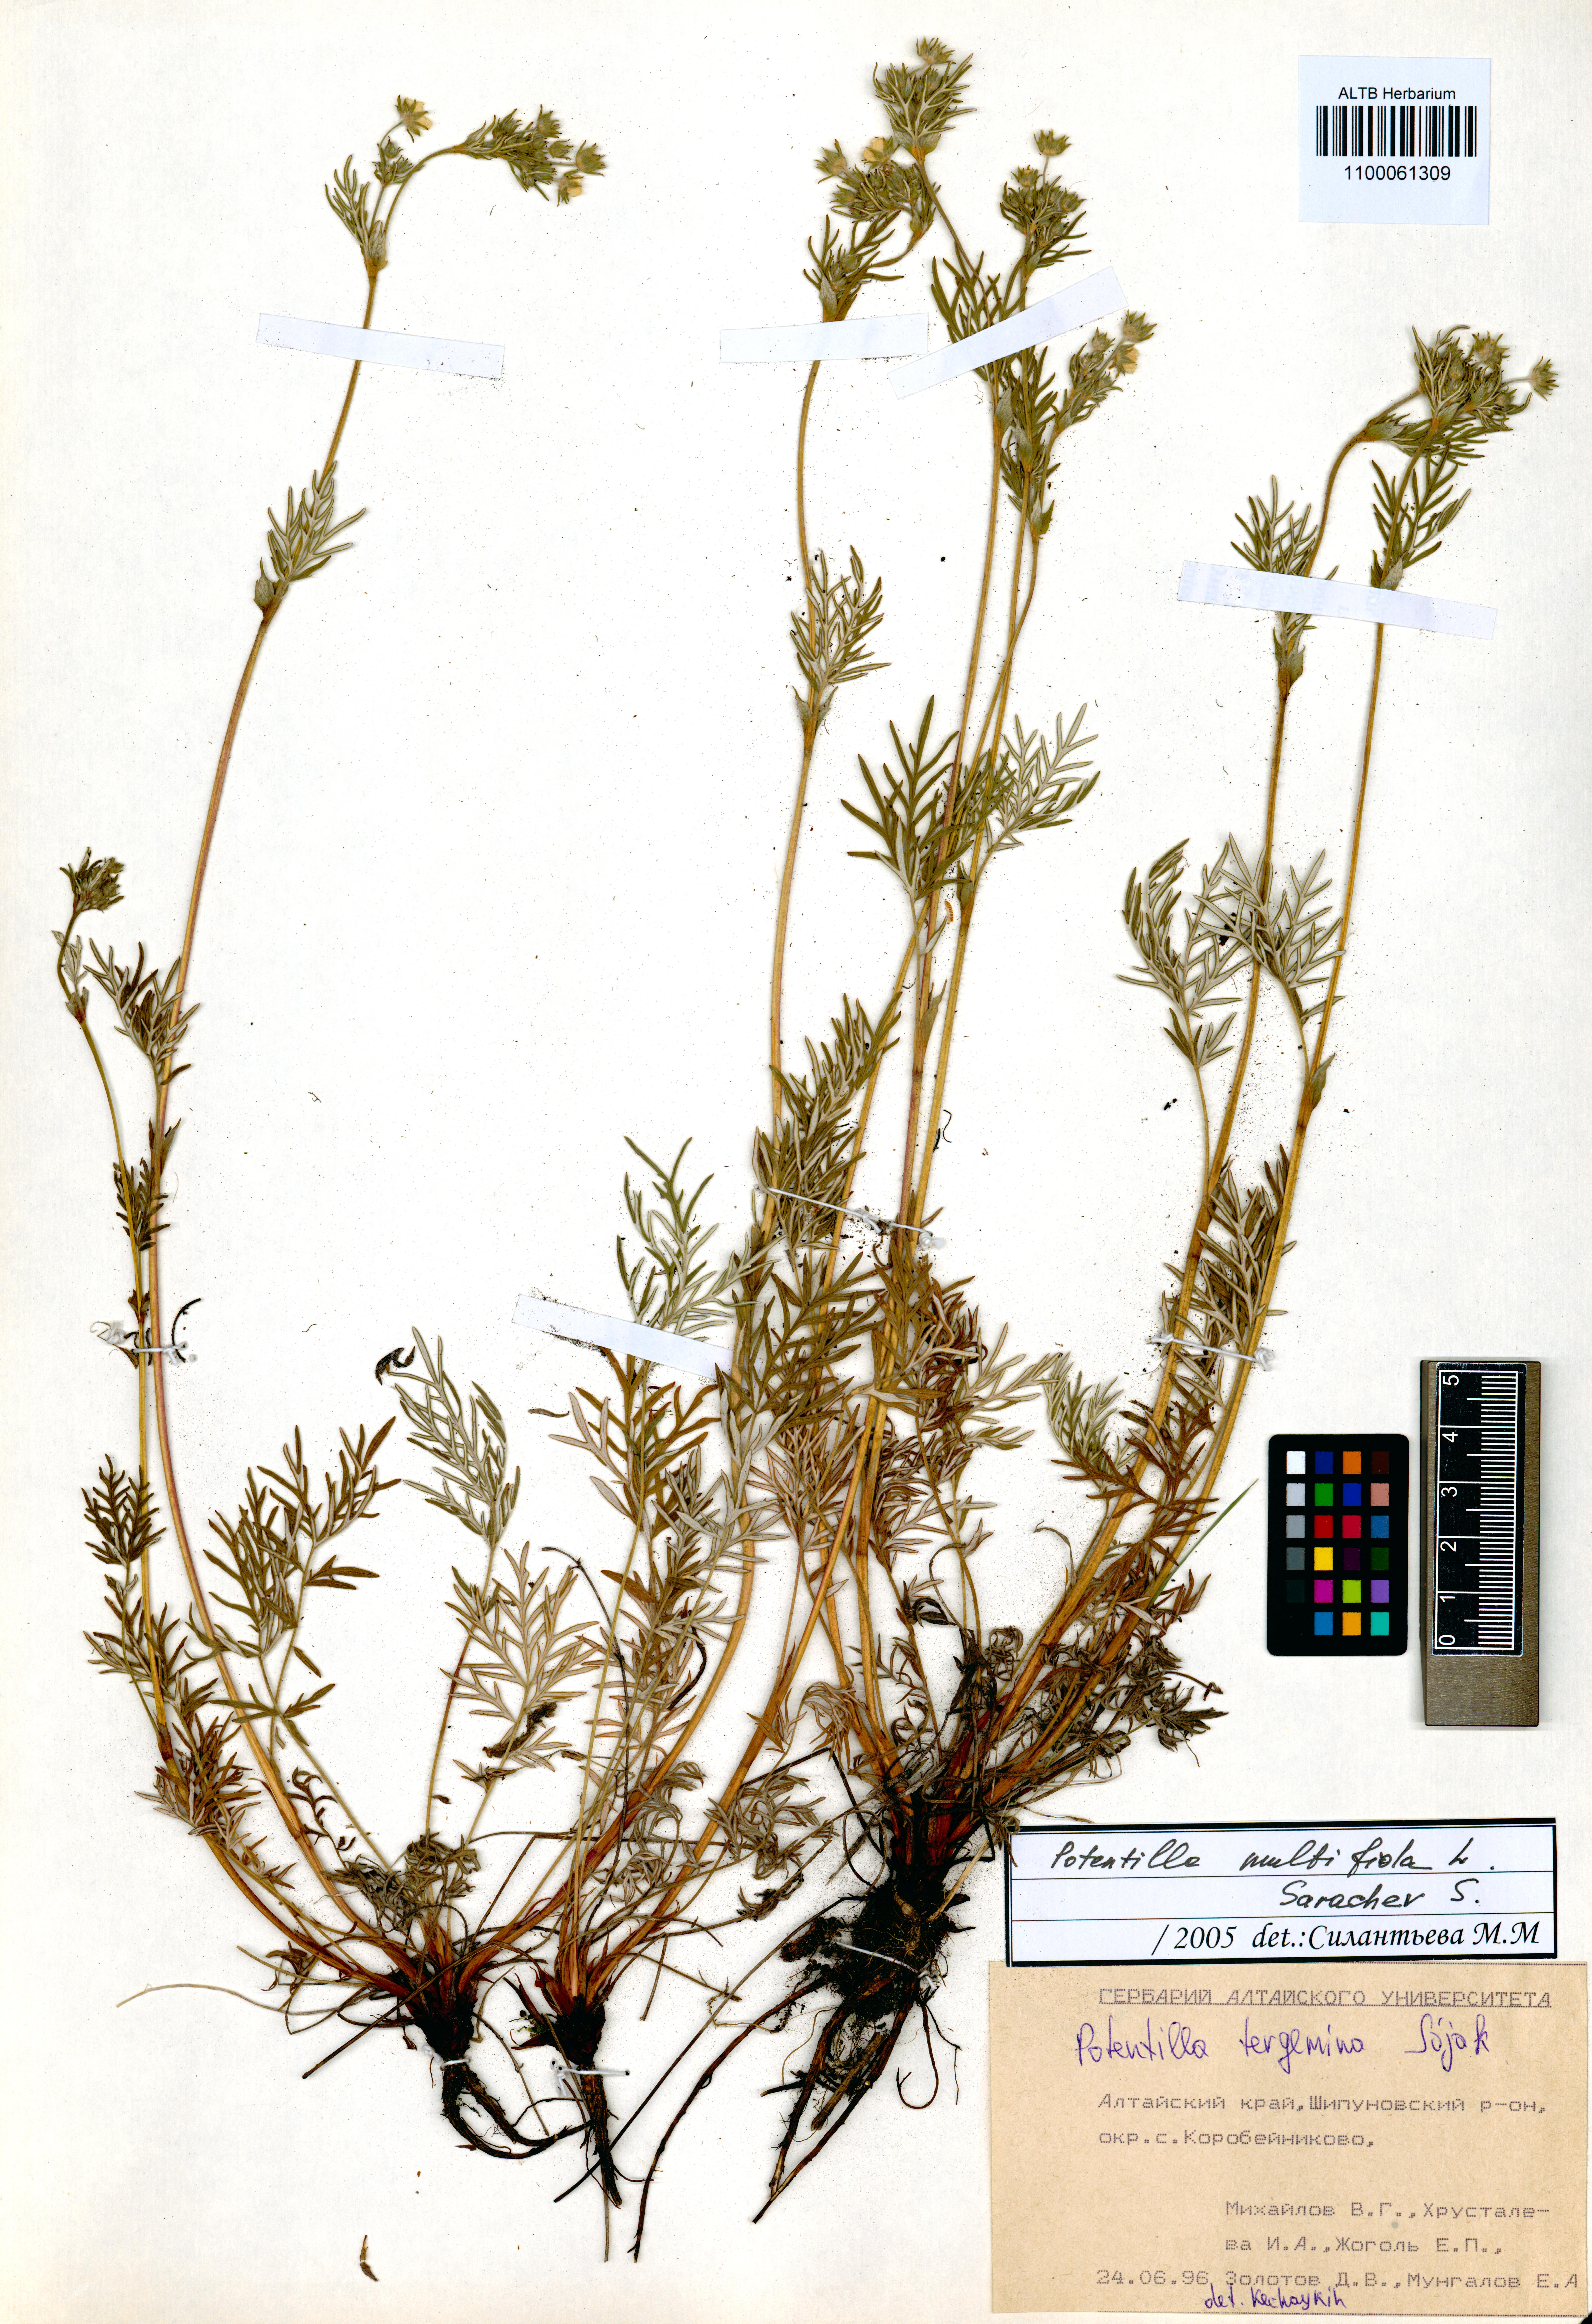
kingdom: Plantae
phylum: Tracheophyta
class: Magnoliopsida
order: Rosales
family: Rosaceae
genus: Potentilla
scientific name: Potentilla tergemina
